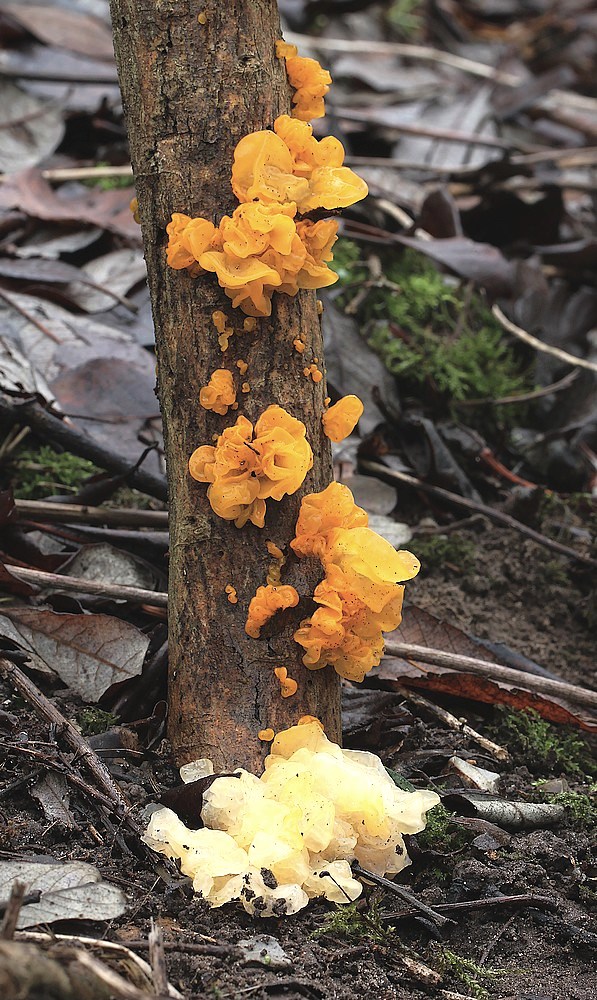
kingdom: Fungi
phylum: Basidiomycota
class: Tremellomycetes
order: Tremellales
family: Tremellaceae
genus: Tremella
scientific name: Tremella mesenterica
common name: gul bævresvamp
